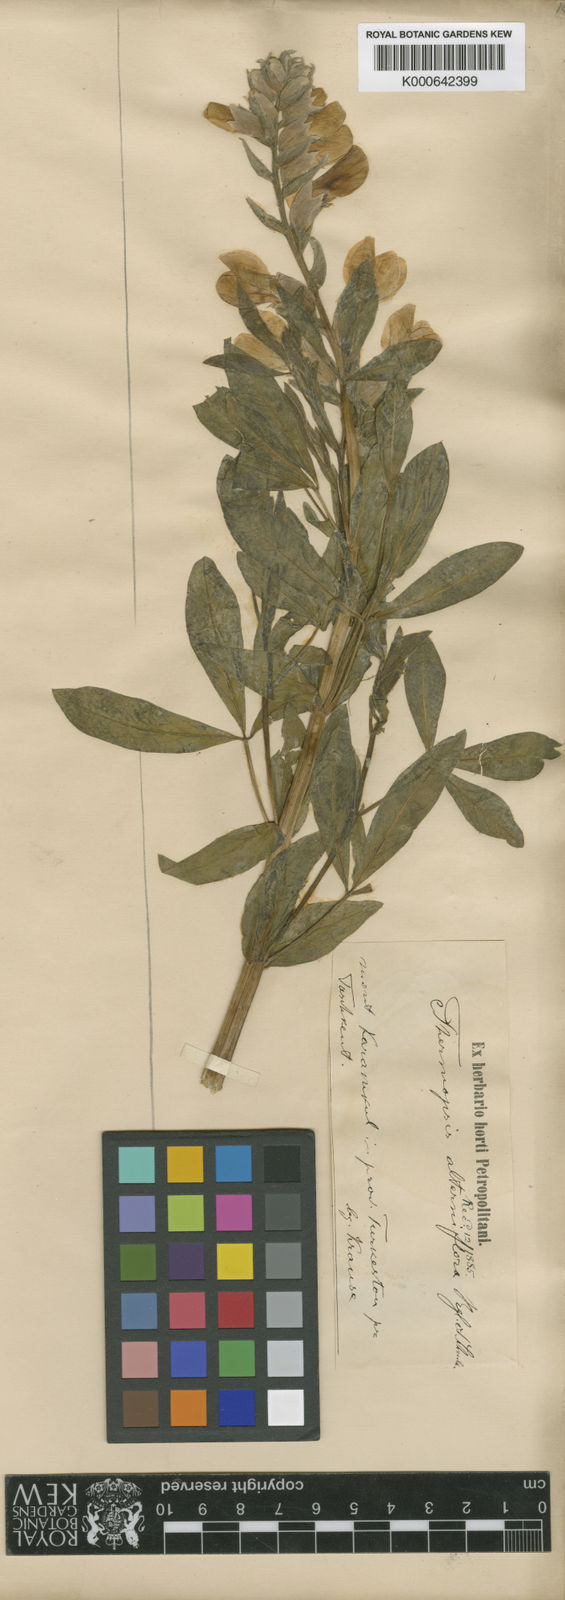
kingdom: Plantae
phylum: Tracheophyta
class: Magnoliopsida
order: Fabales
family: Fabaceae
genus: Thermopsis
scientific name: Thermopsis alterniflora
